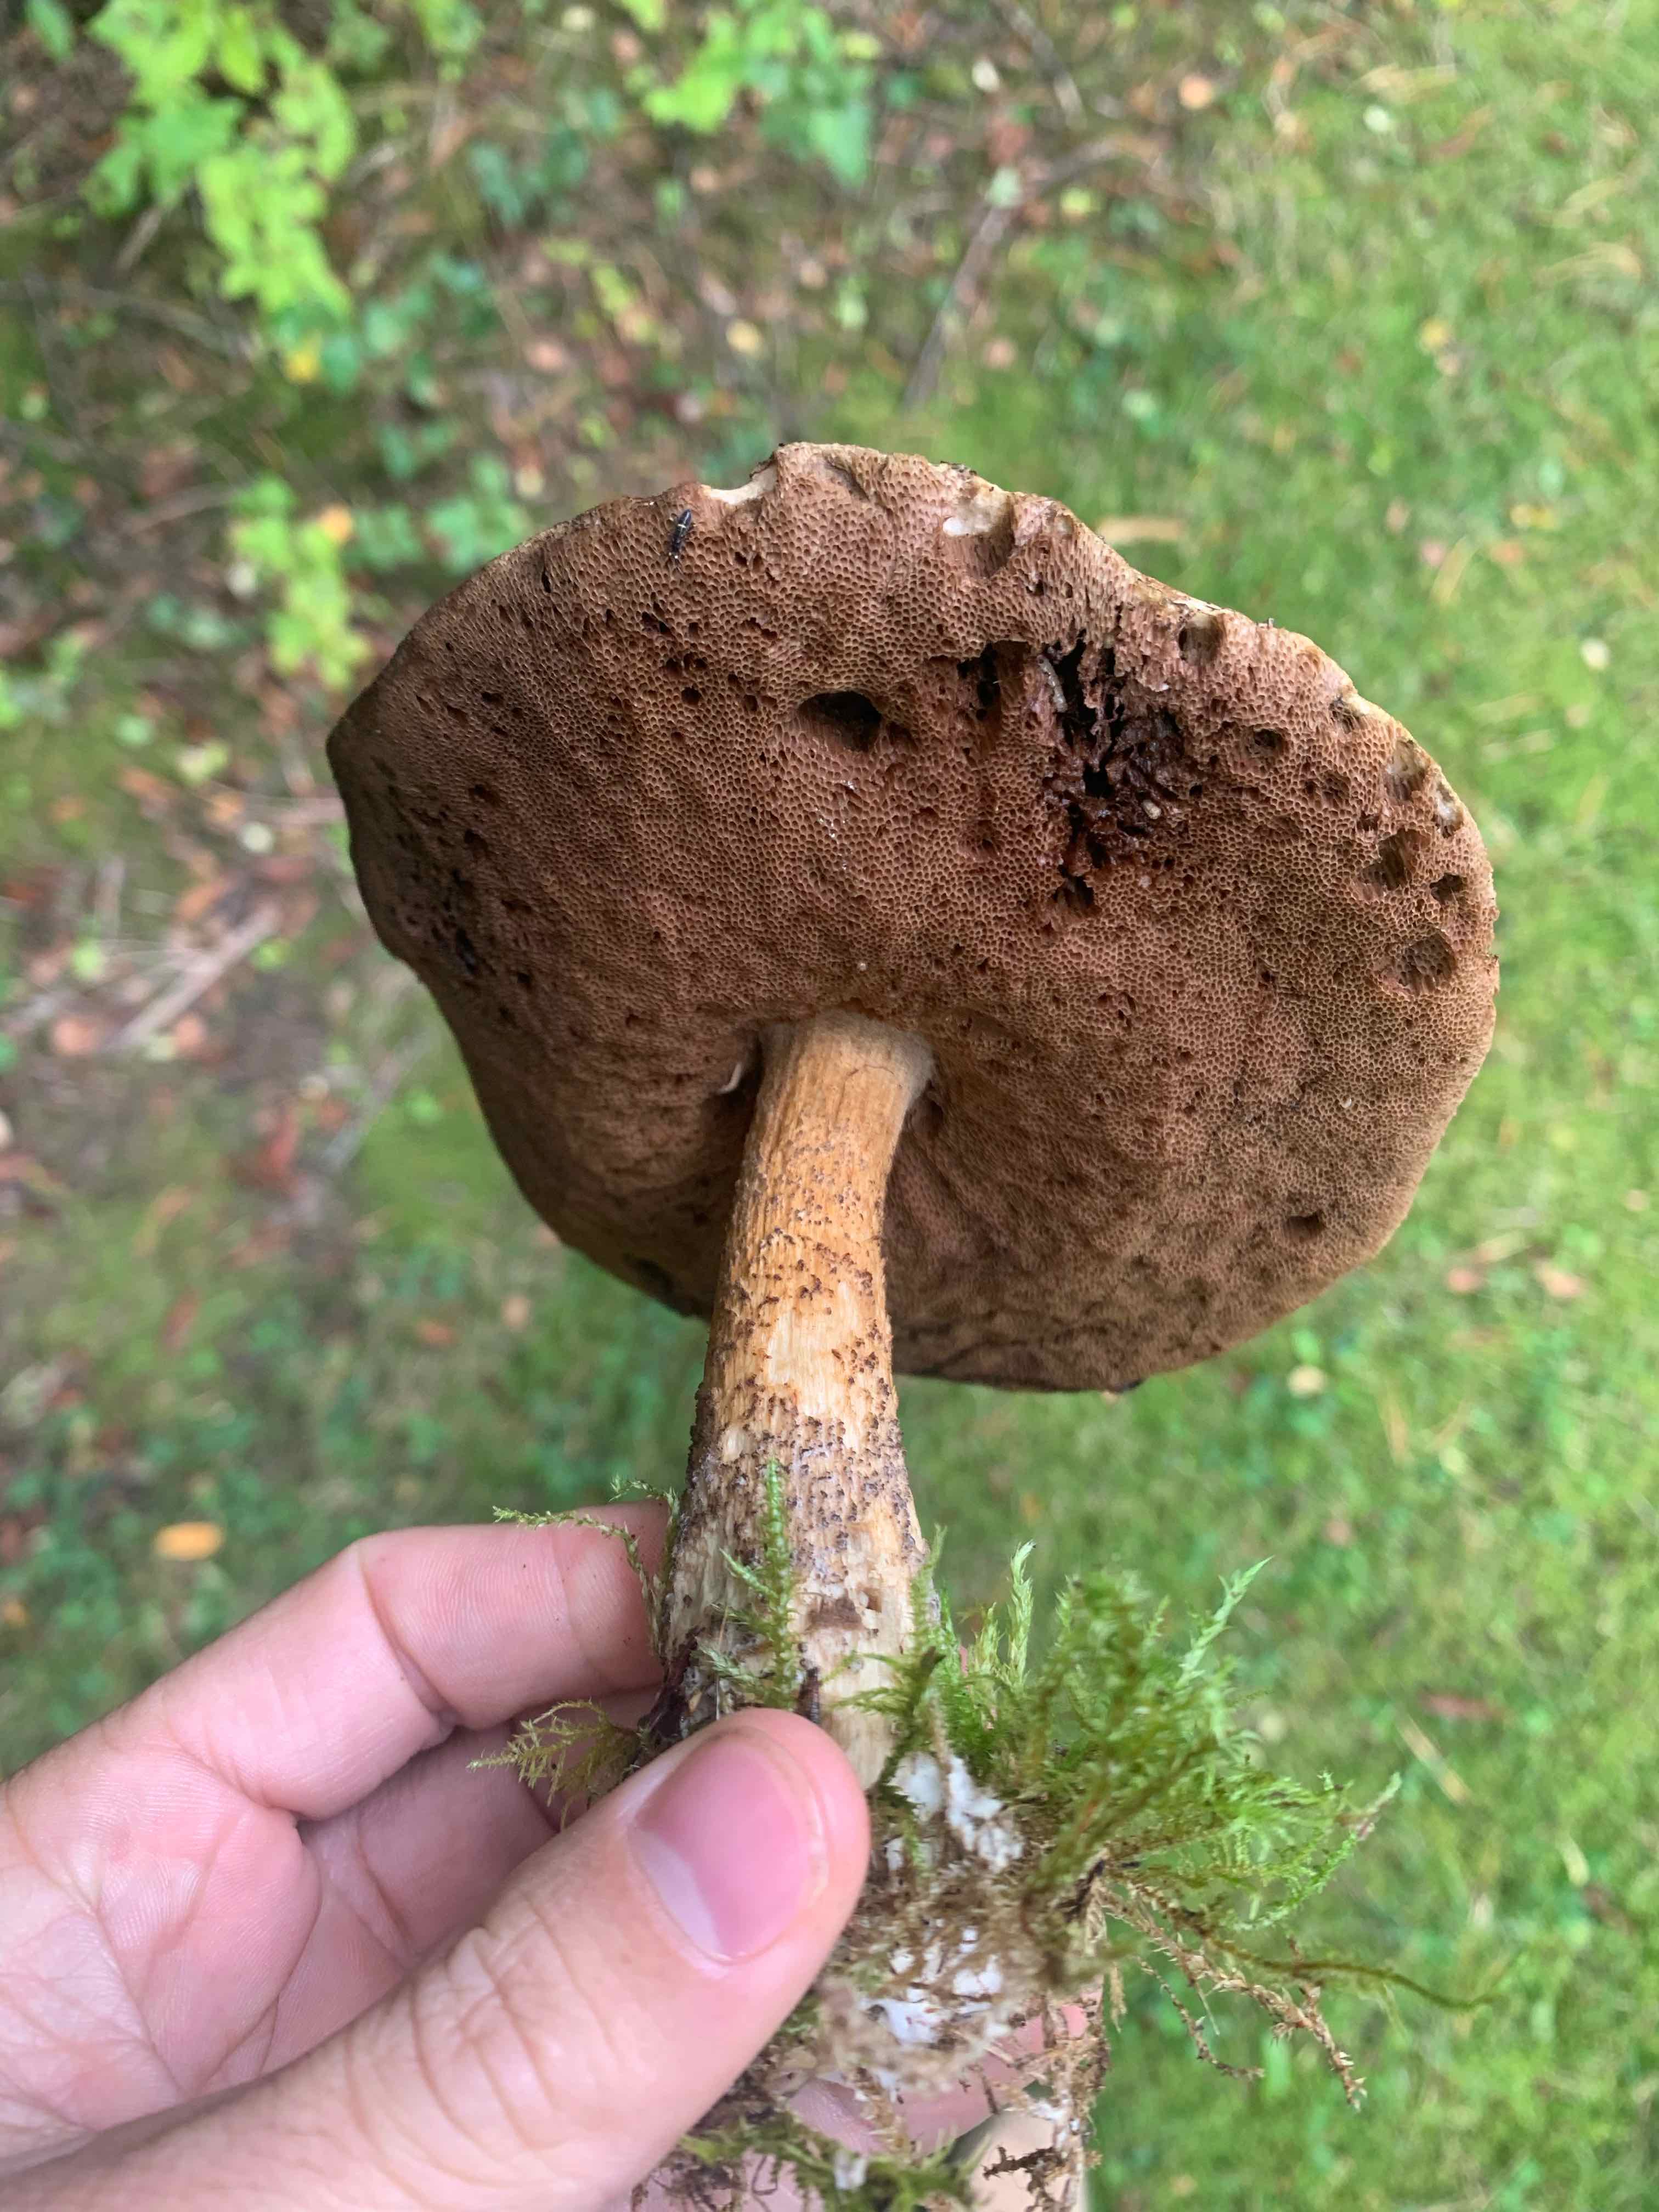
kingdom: Fungi
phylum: Basidiomycota
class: Agaricomycetes
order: Boletales
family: Boletaceae
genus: Leccinum
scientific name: Leccinum
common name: skælrørhat
